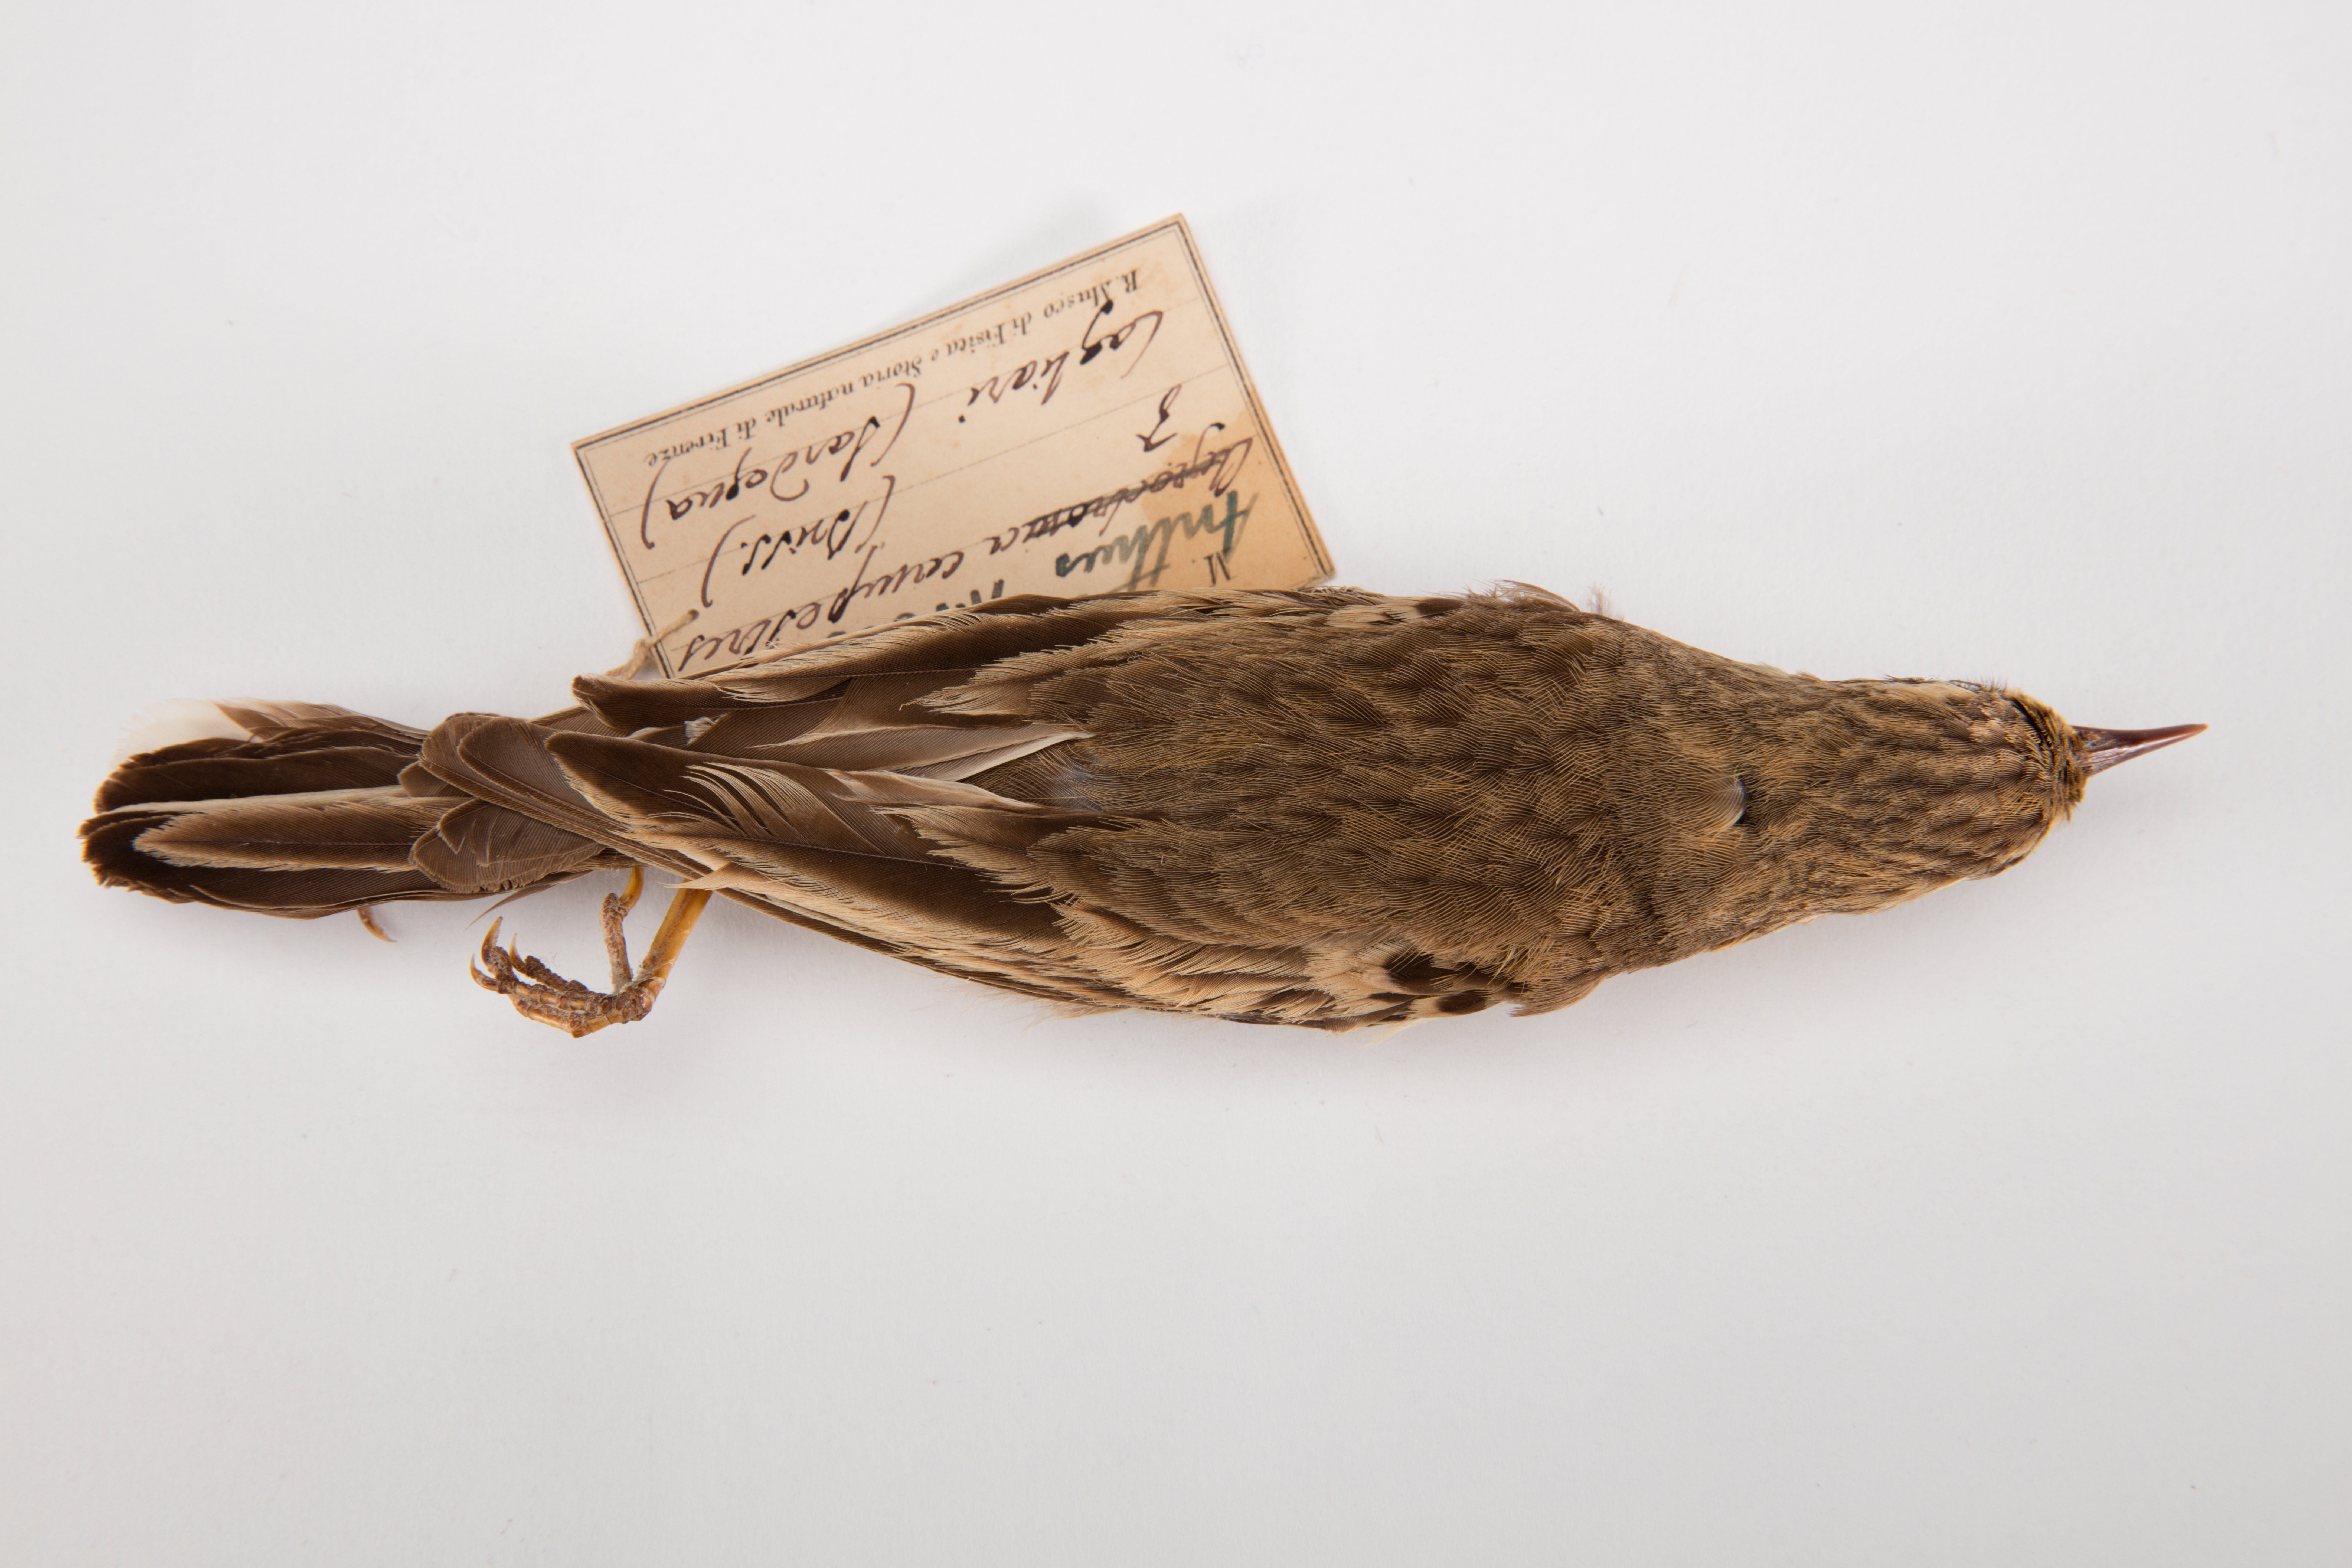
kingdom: Animalia
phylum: Chordata
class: Aves
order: Passeriformes
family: Motacillidae
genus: Anthus
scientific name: Anthus campestris
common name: Tawny pipit
